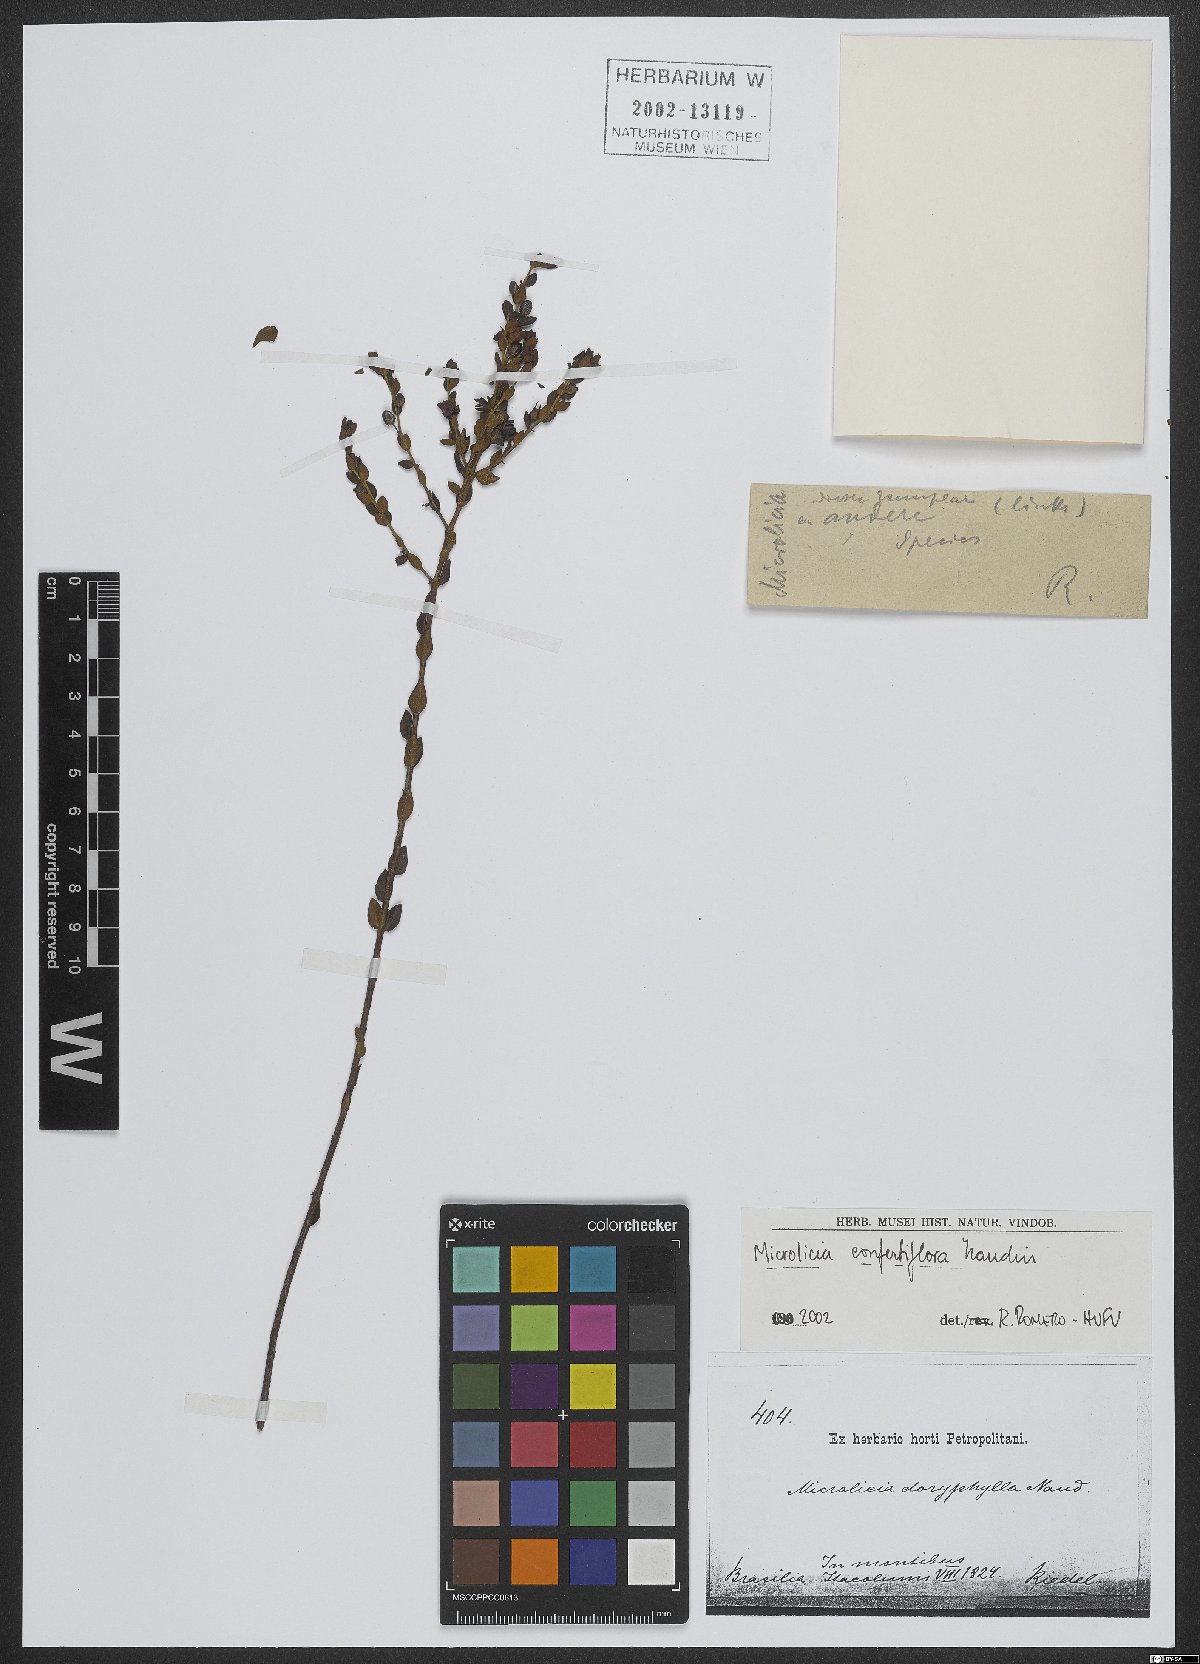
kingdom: Plantae
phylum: Tracheophyta
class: Magnoliopsida
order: Myrtales
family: Melastomataceae
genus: Microlicia
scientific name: Microlicia confertiflora
